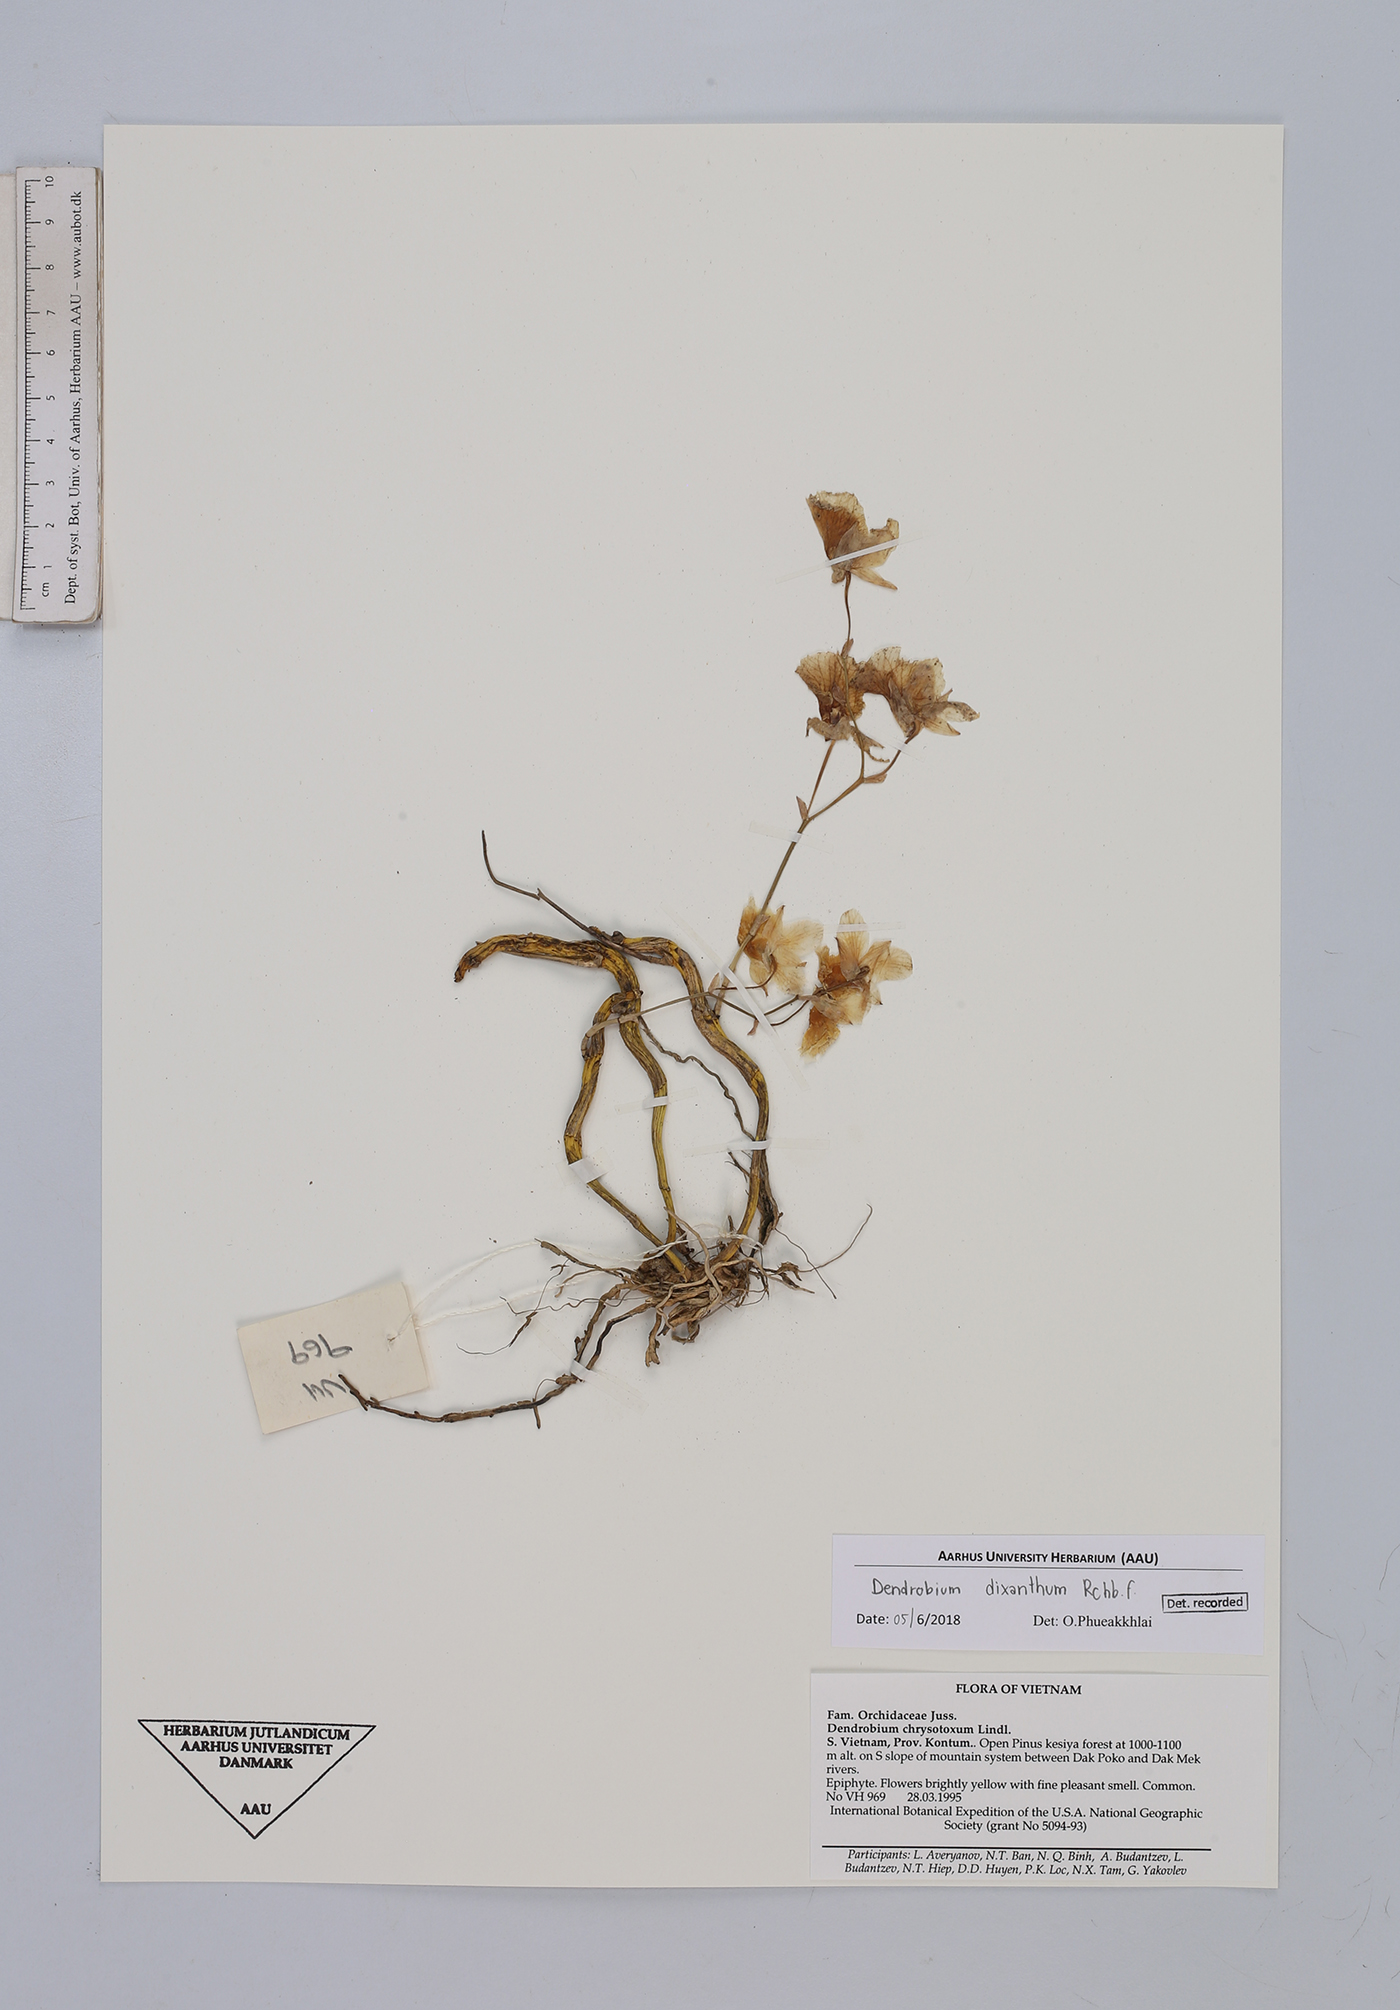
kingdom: Plantae
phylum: Tracheophyta
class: Liliopsida
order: Asparagales
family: Orchidaceae
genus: Dendrobium
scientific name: Dendrobium dixanthum
